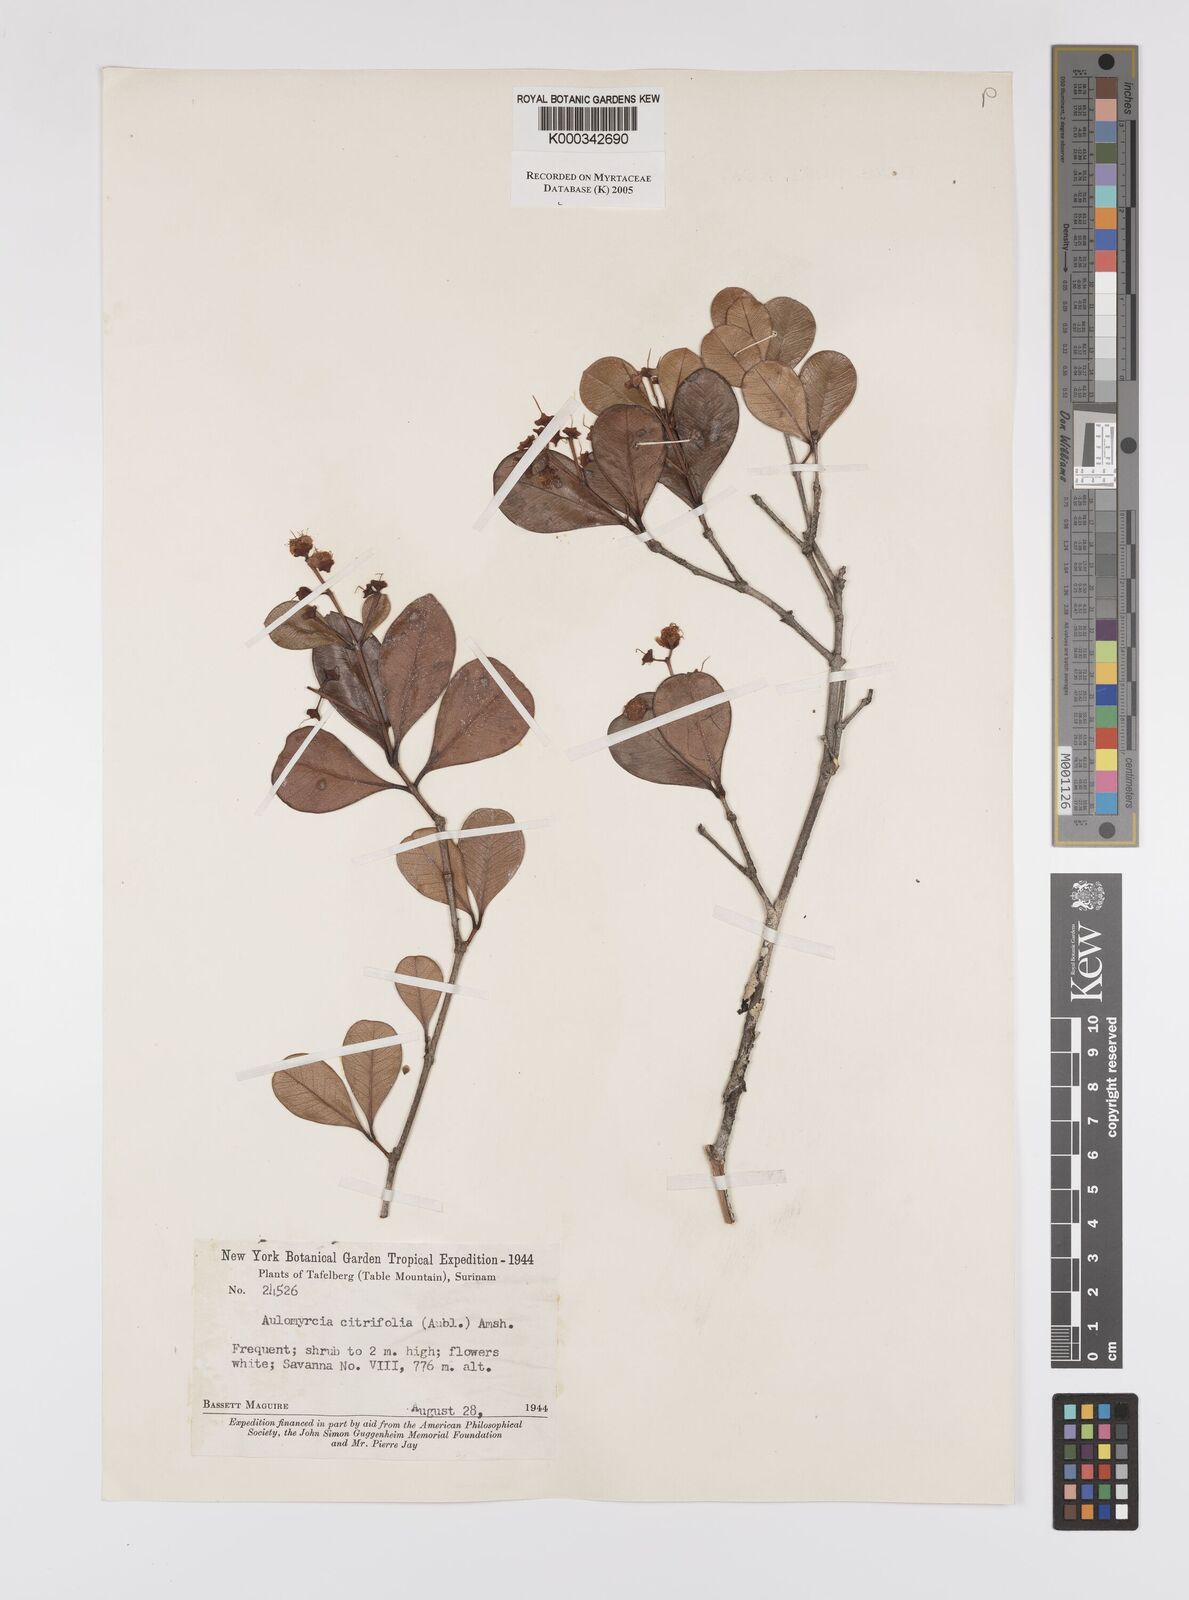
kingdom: Plantae
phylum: Tracheophyta
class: Magnoliopsida
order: Myrtales
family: Myrtaceae
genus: Myrcia
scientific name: Myrcia guianensis
